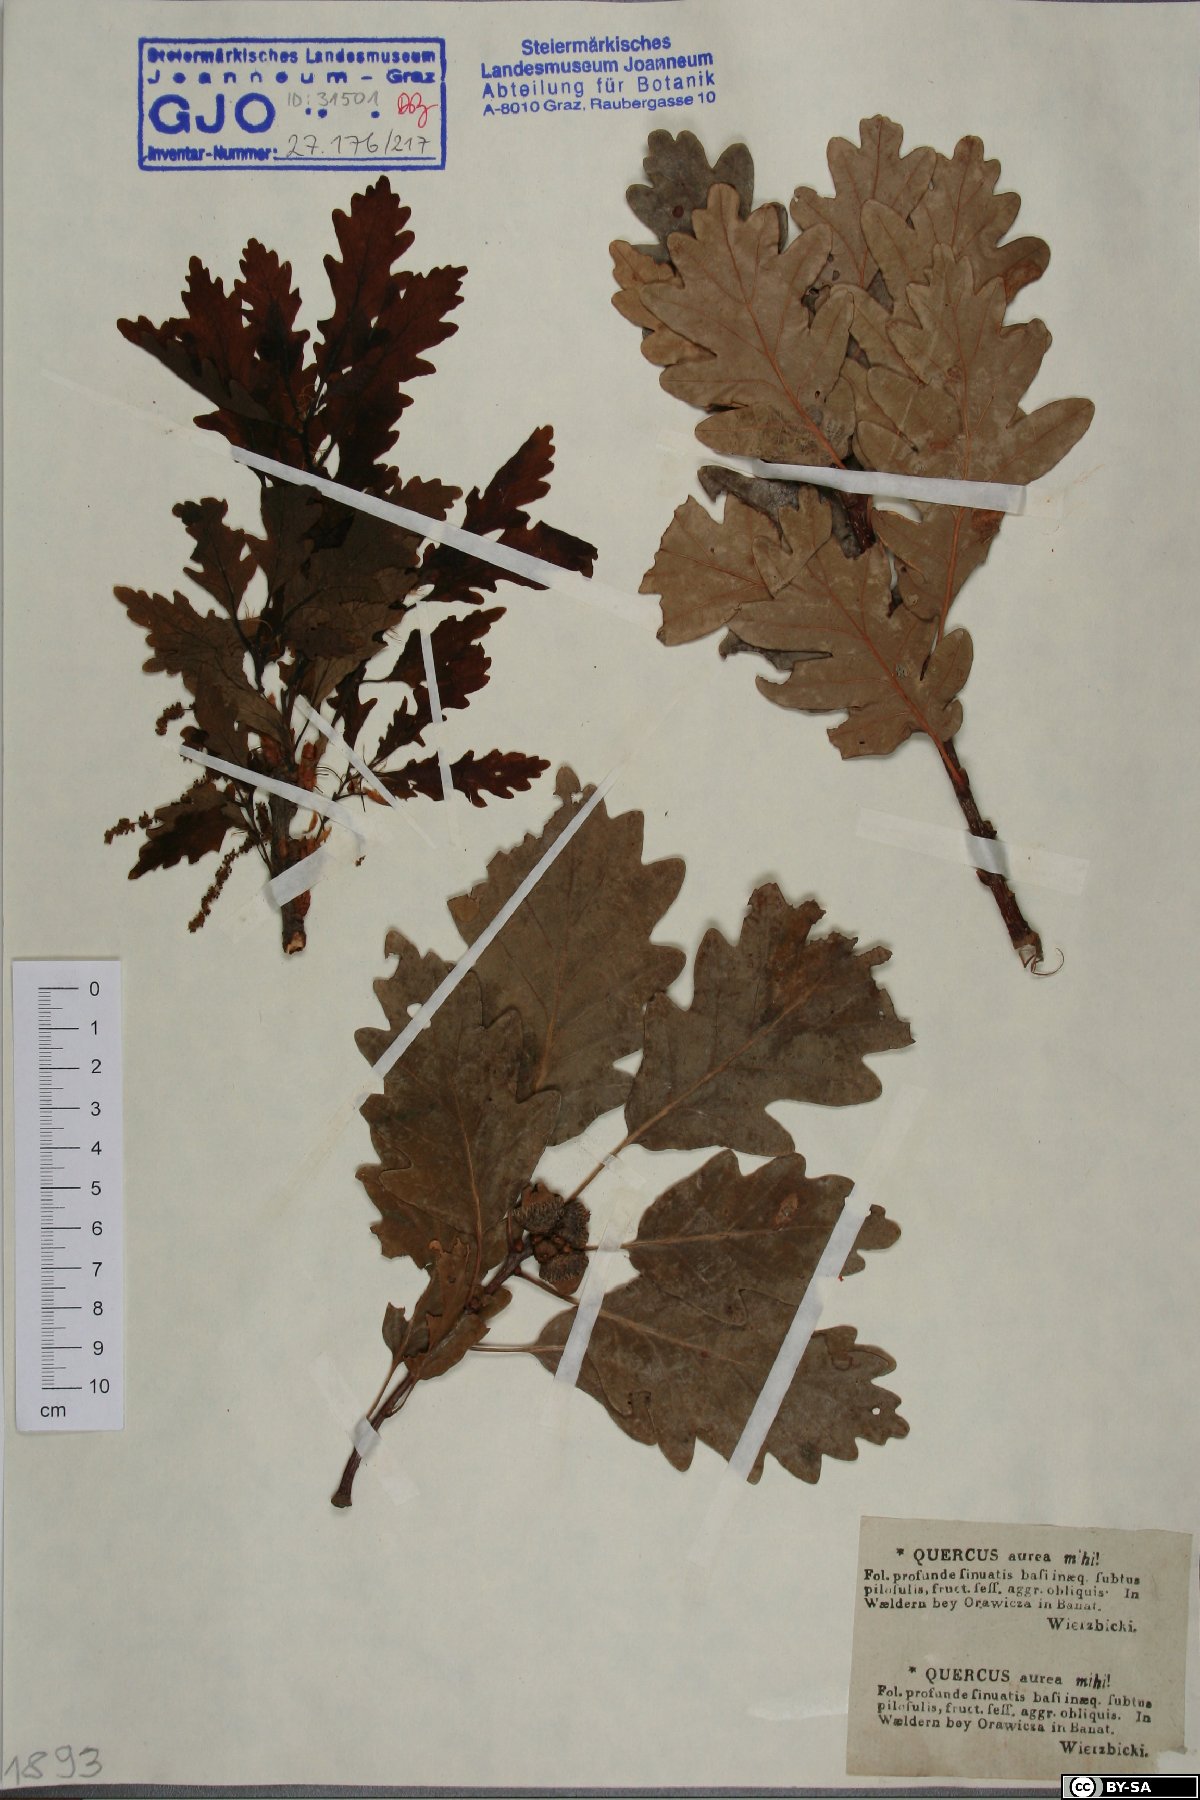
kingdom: Plantae
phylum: Tracheophyta
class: Magnoliopsida
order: Fagales
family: Fagaceae
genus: Quercus
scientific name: Quercus dalechampii
